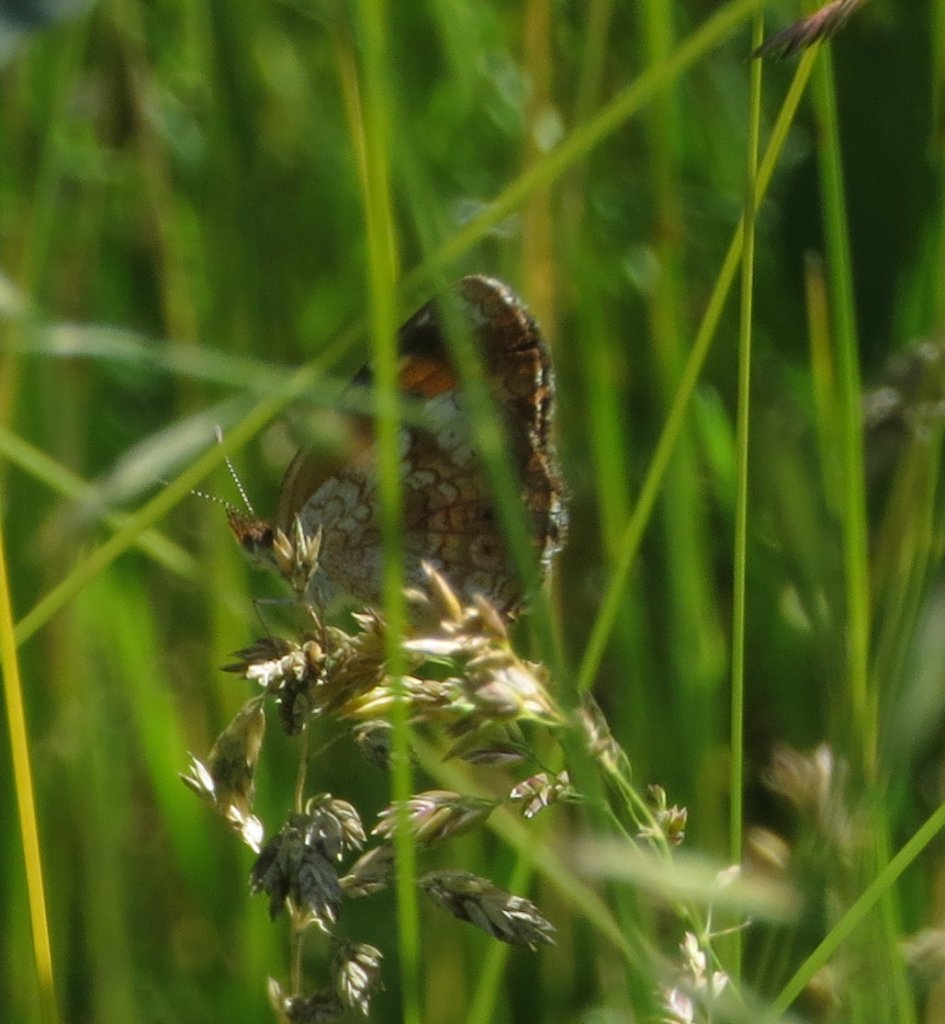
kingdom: Animalia
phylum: Arthropoda
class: Insecta
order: Lepidoptera
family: Nymphalidae
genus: Phyciodes
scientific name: Phyciodes tharos
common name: Pearl Crescent
